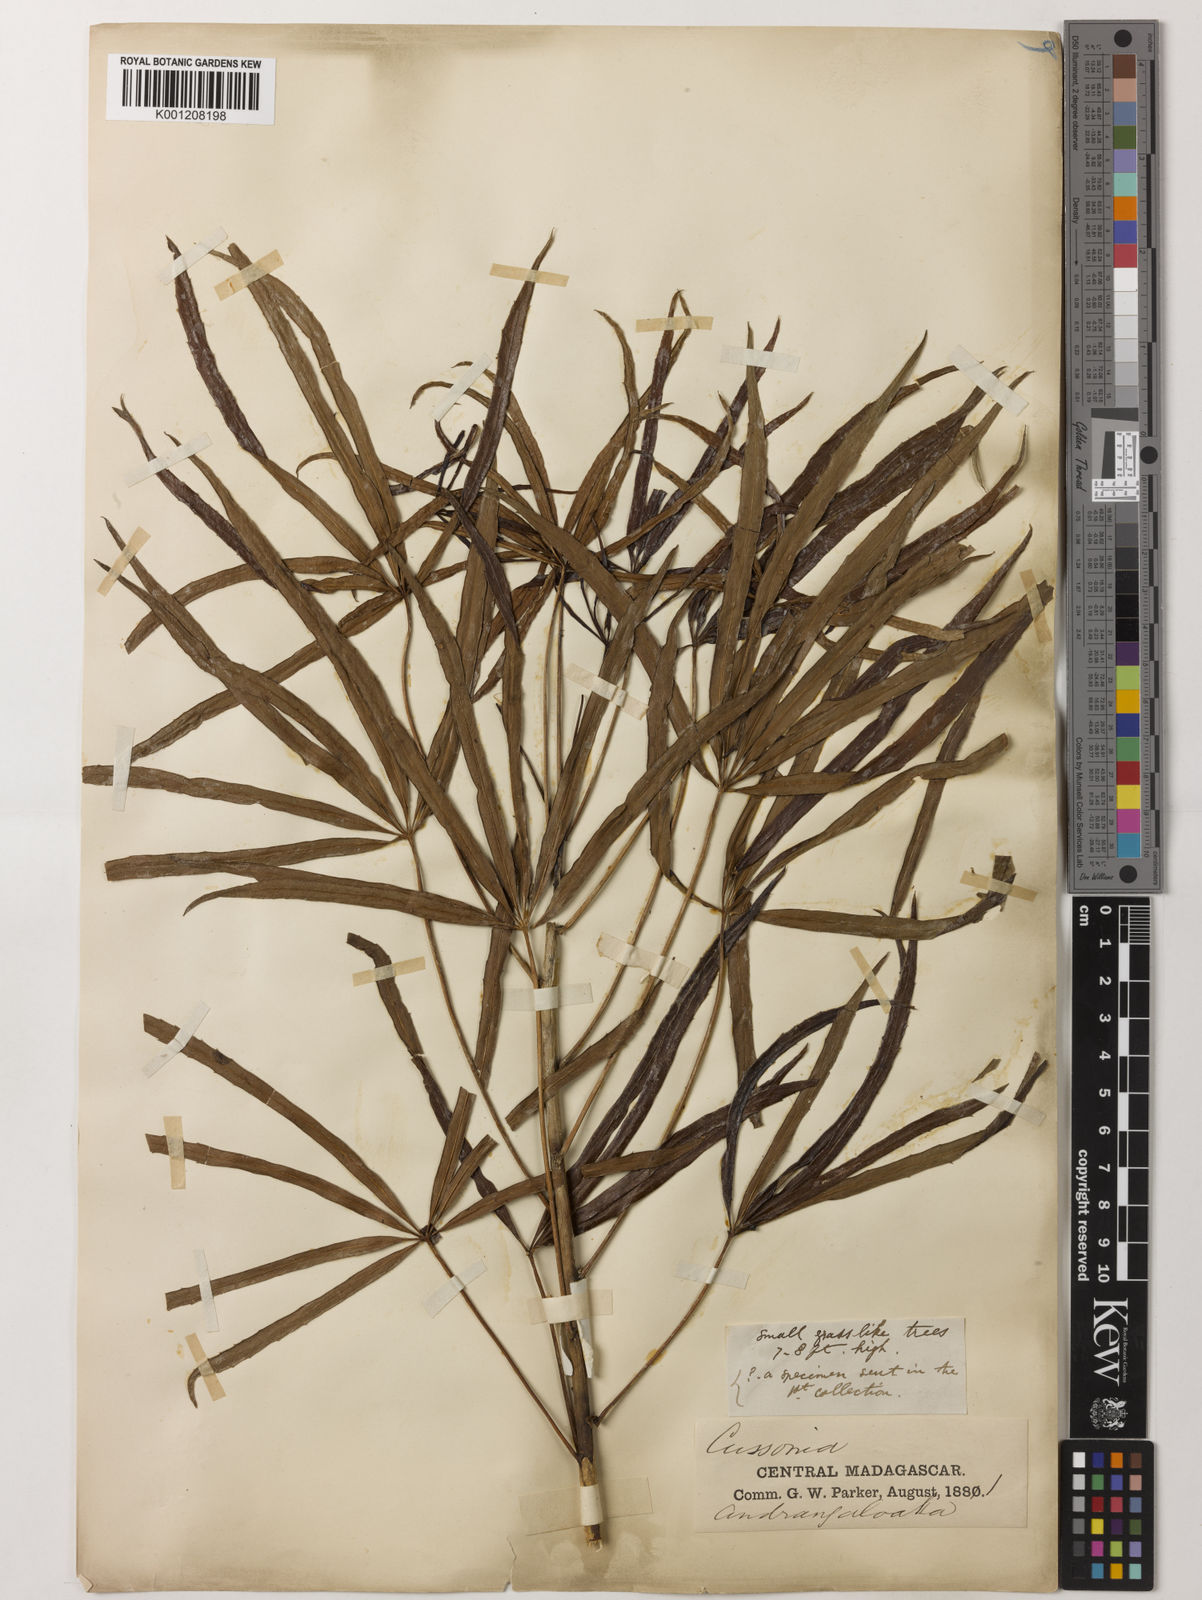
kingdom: Plantae
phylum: Tracheophyta
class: Magnoliopsida
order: Apiales
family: Araliaceae
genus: Neocussonia
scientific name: Neocussonia vantsilana
